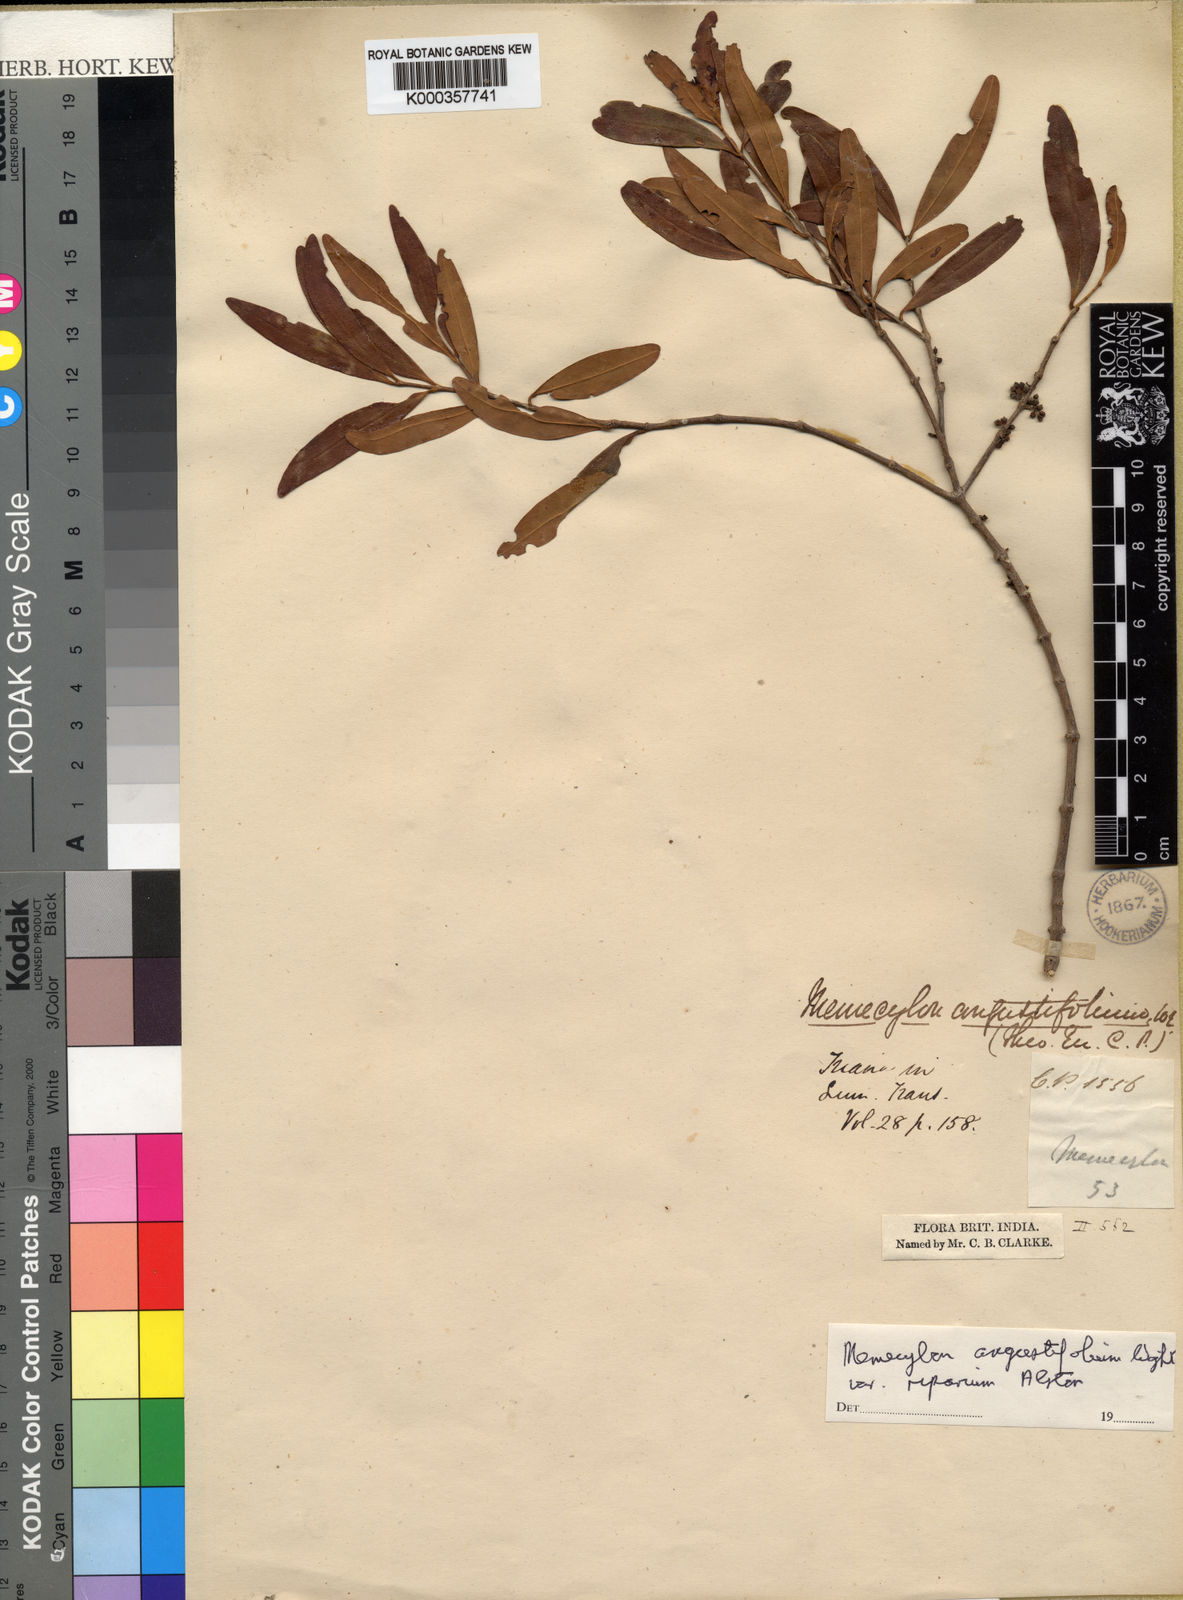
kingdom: Plantae
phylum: Tracheophyta
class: Magnoliopsida
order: Myrtales
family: Melastomataceae
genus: Memecylon
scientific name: Memecylon angustifolium
